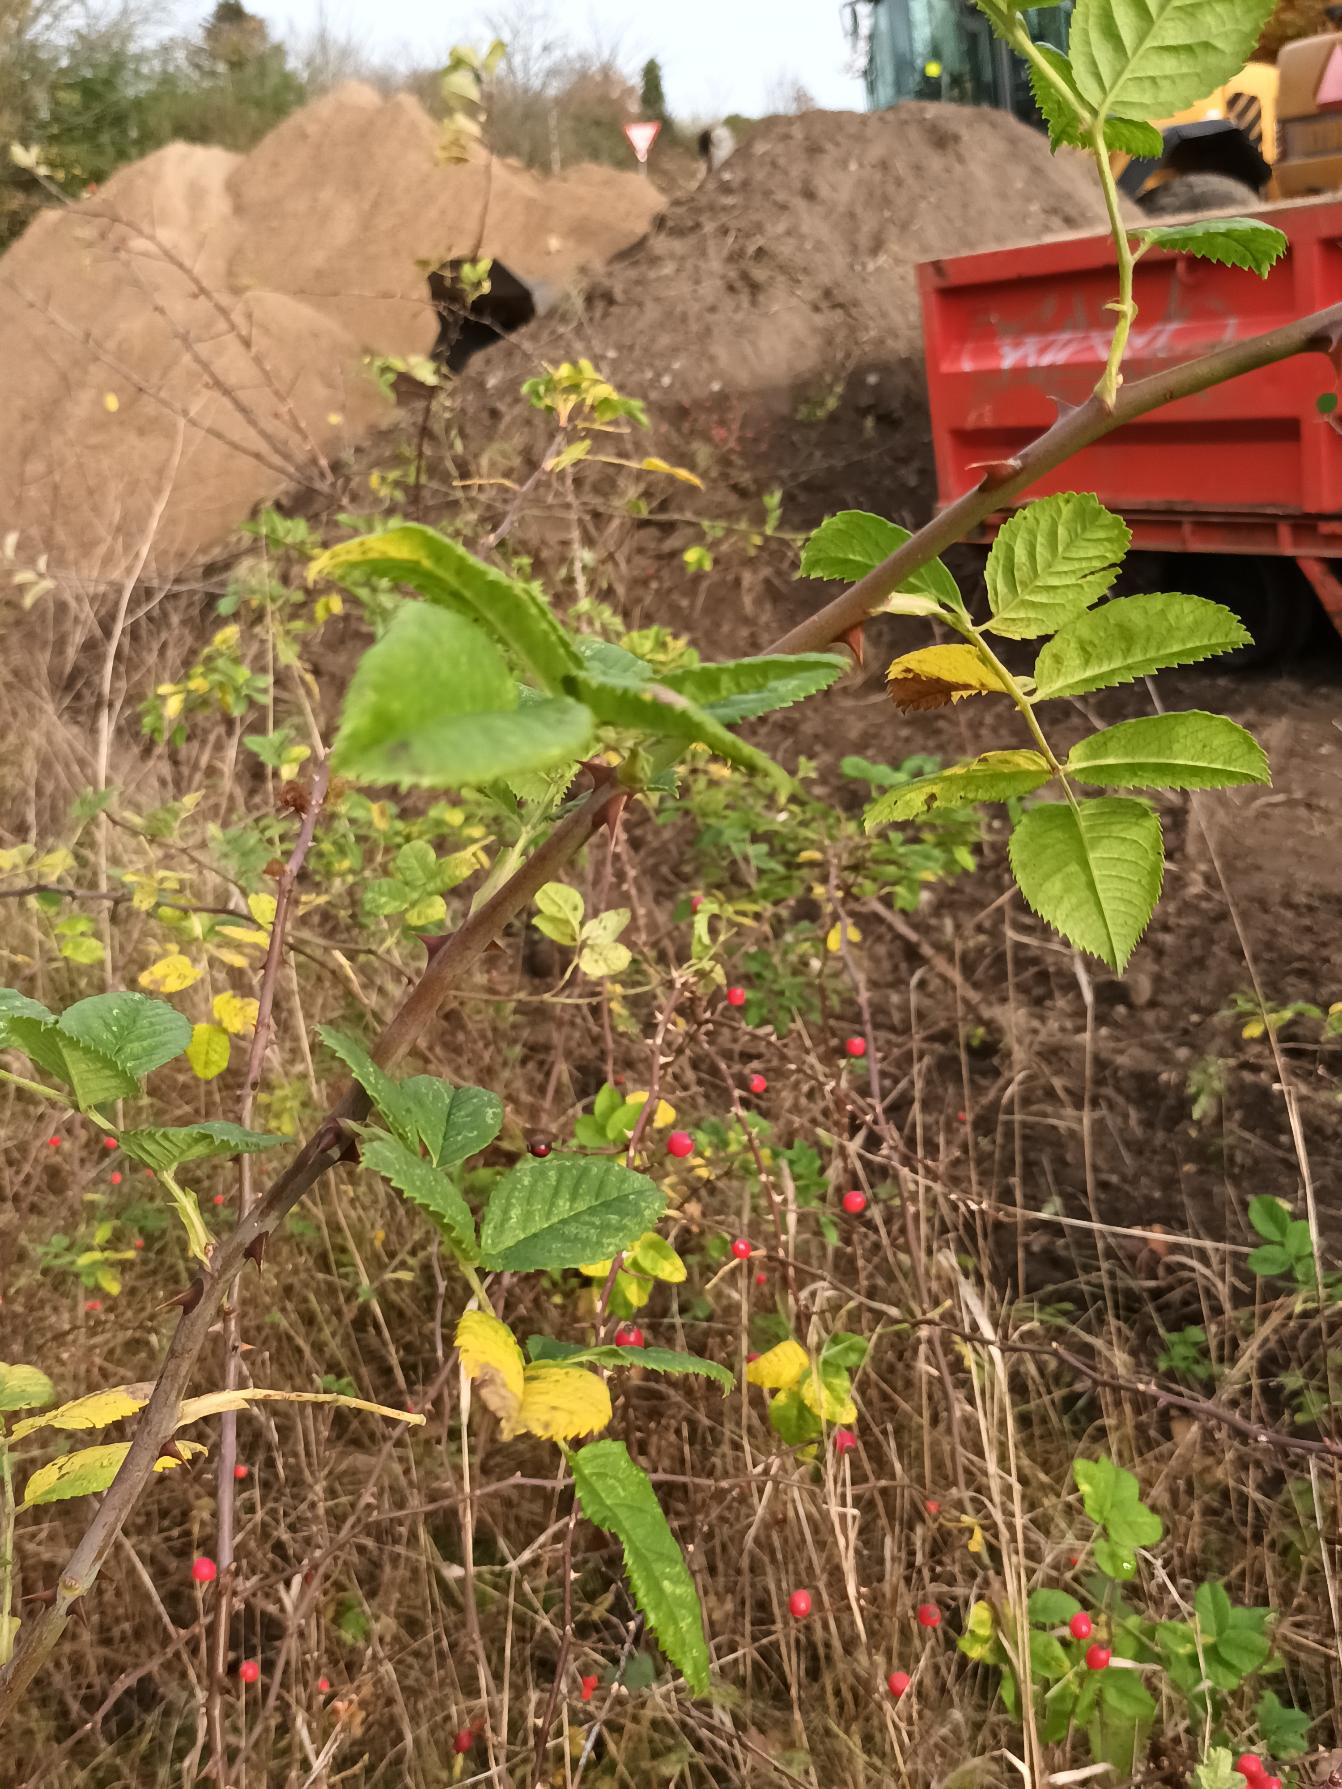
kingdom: Plantae
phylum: Tracheophyta
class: Magnoliopsida
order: Rosales
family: Rosaceae
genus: Rosa
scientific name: Rosa canina
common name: Glat hunde-rose
